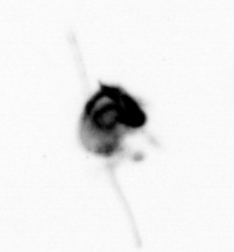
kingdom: Animalia
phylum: Arthropoda
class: Copepoda
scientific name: Copepoda
